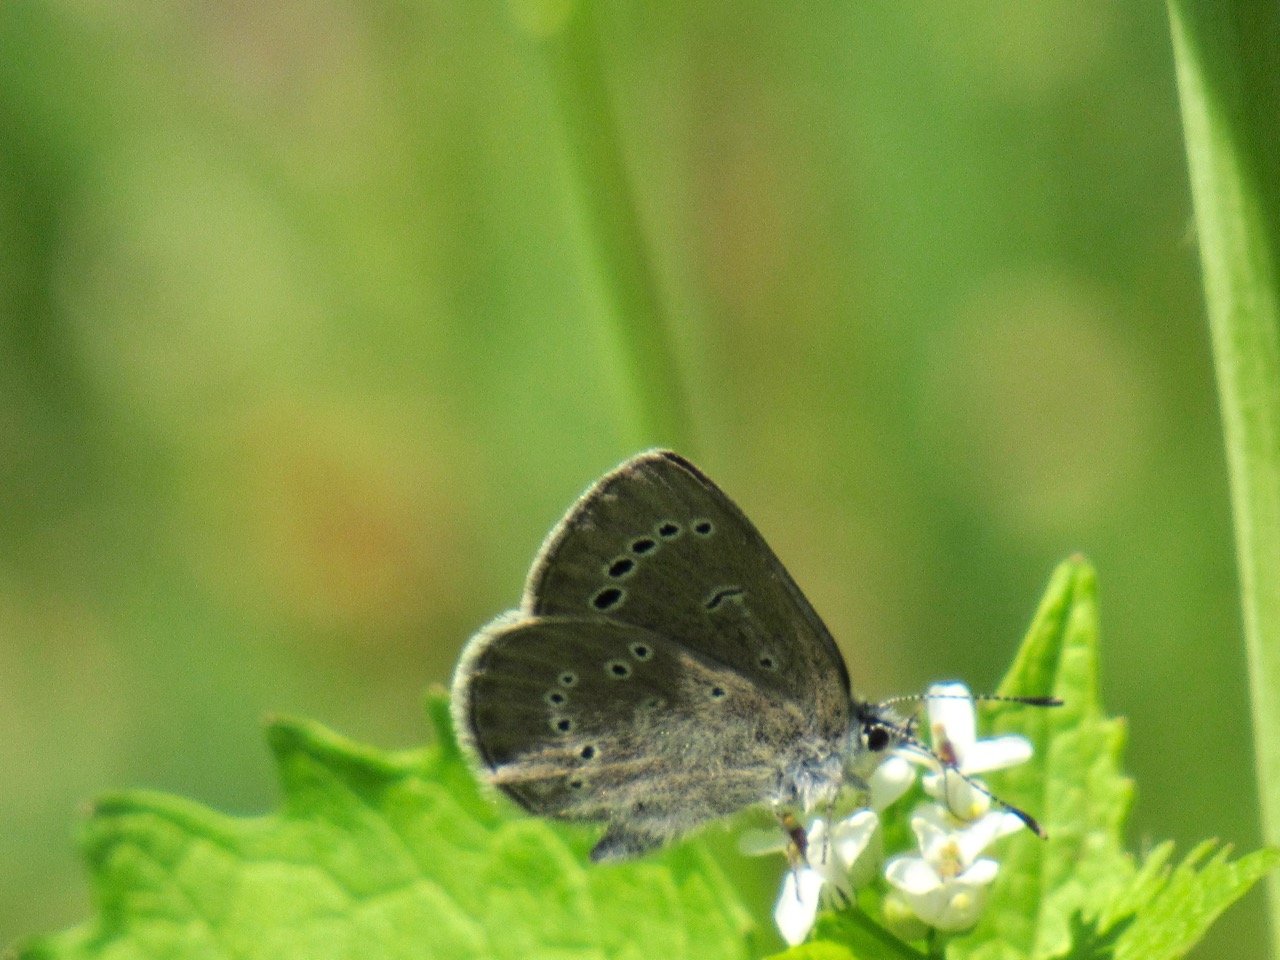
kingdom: Animalia
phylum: Arthropoda
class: Insecta
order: Lepidoptera
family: Lycaenidae
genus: Glaucopsyche
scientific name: Glaucopsyche lygdamus
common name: Silvery Blue
